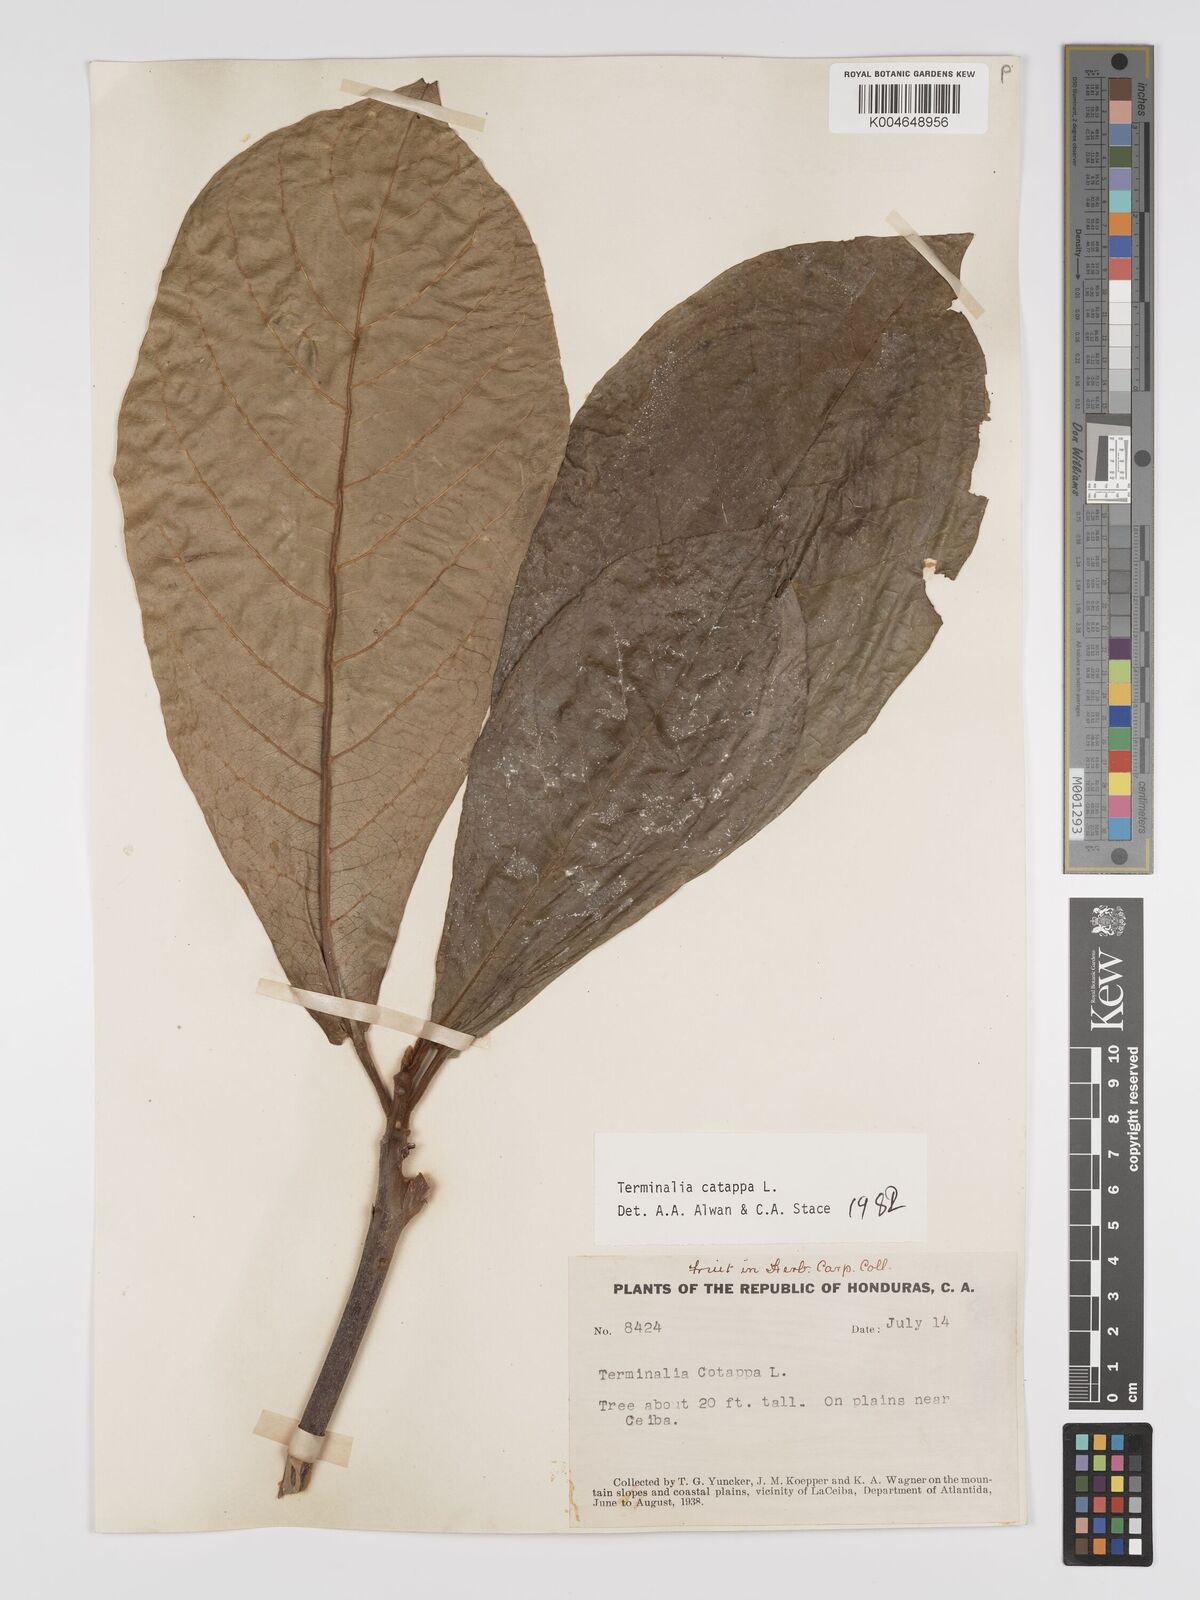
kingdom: Plantae
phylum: Tracheophyta
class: Magnoliopsida
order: Myrtales
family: Combretaceae
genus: Terminalia
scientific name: Terminalia catappa
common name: Tropical almond
